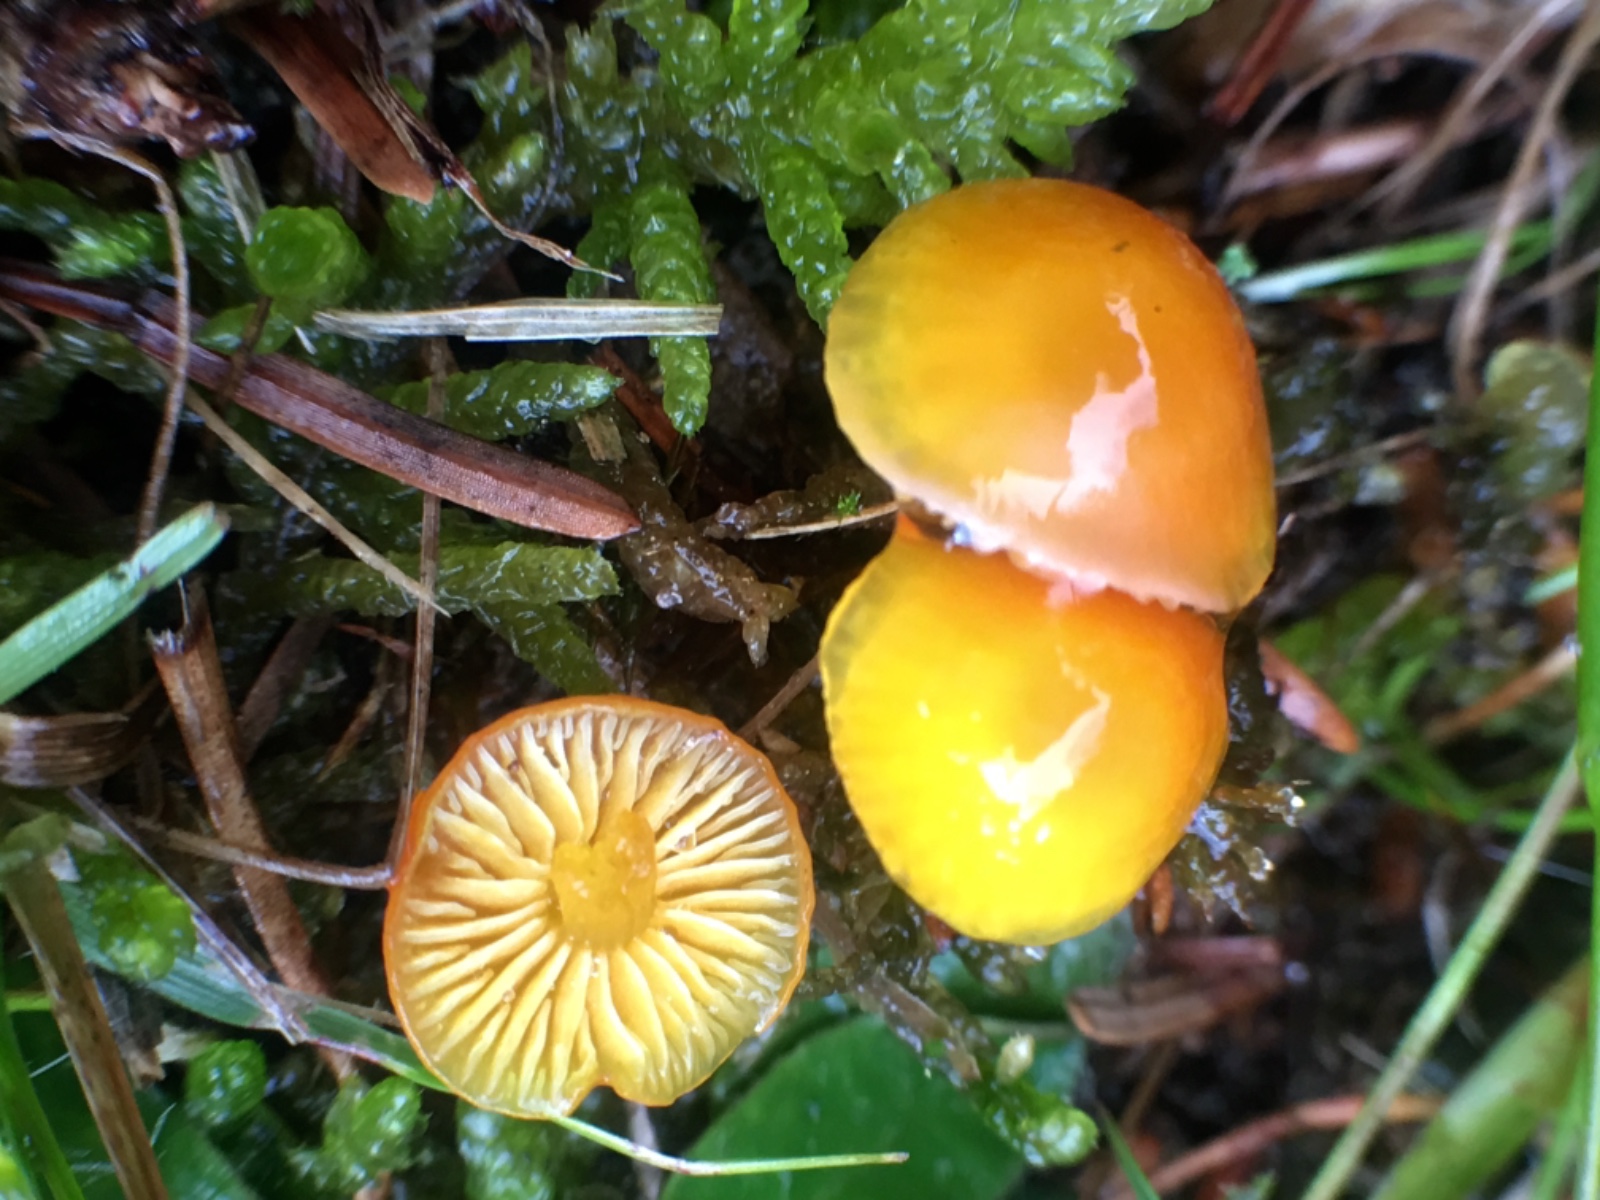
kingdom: Fungi
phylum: Basidiomycota
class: Agaricomycetes
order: Agaricales
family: Hygrophoraceae
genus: Hygrocybe
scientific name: Hygrocybe ceracea
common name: voksgul vokshat
